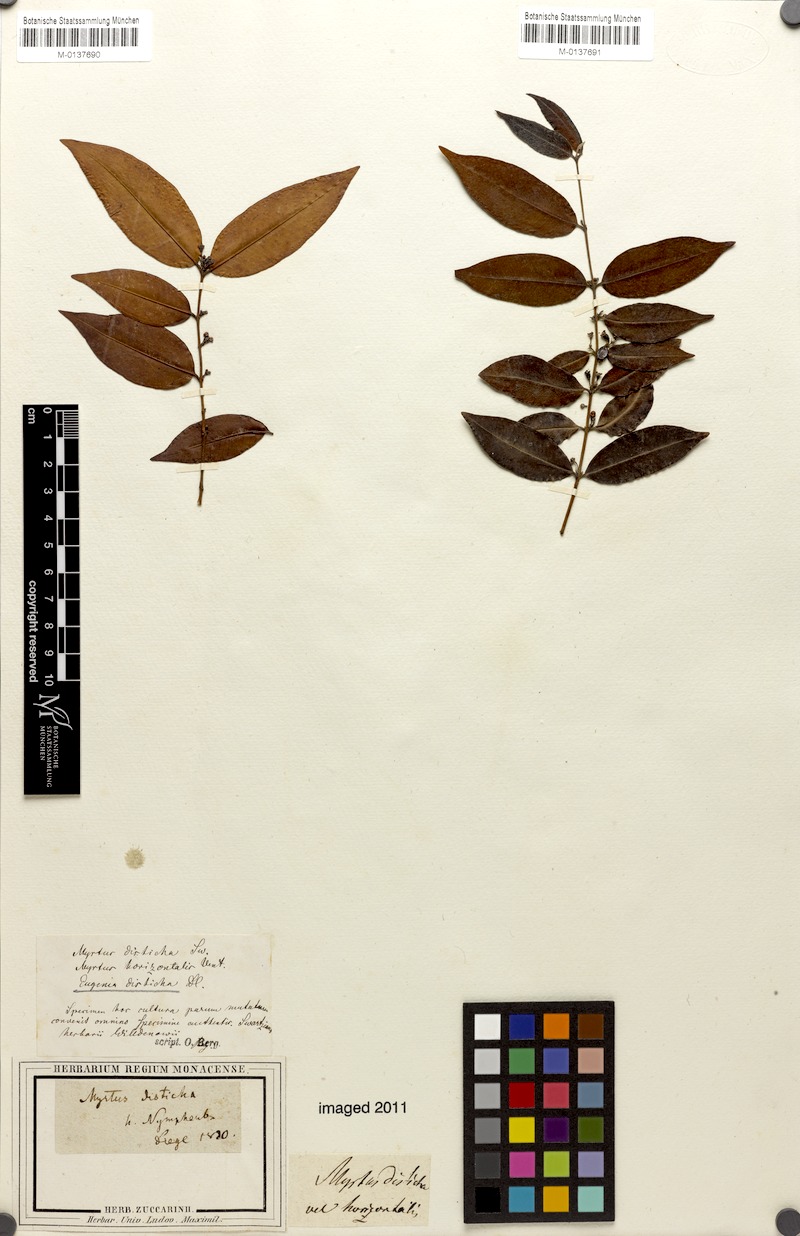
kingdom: Plantae
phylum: Tracheophyta
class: Magnoliopsida
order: Myrtales
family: Myrtaceae
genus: Eugenia
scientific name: Eugenia disticha
